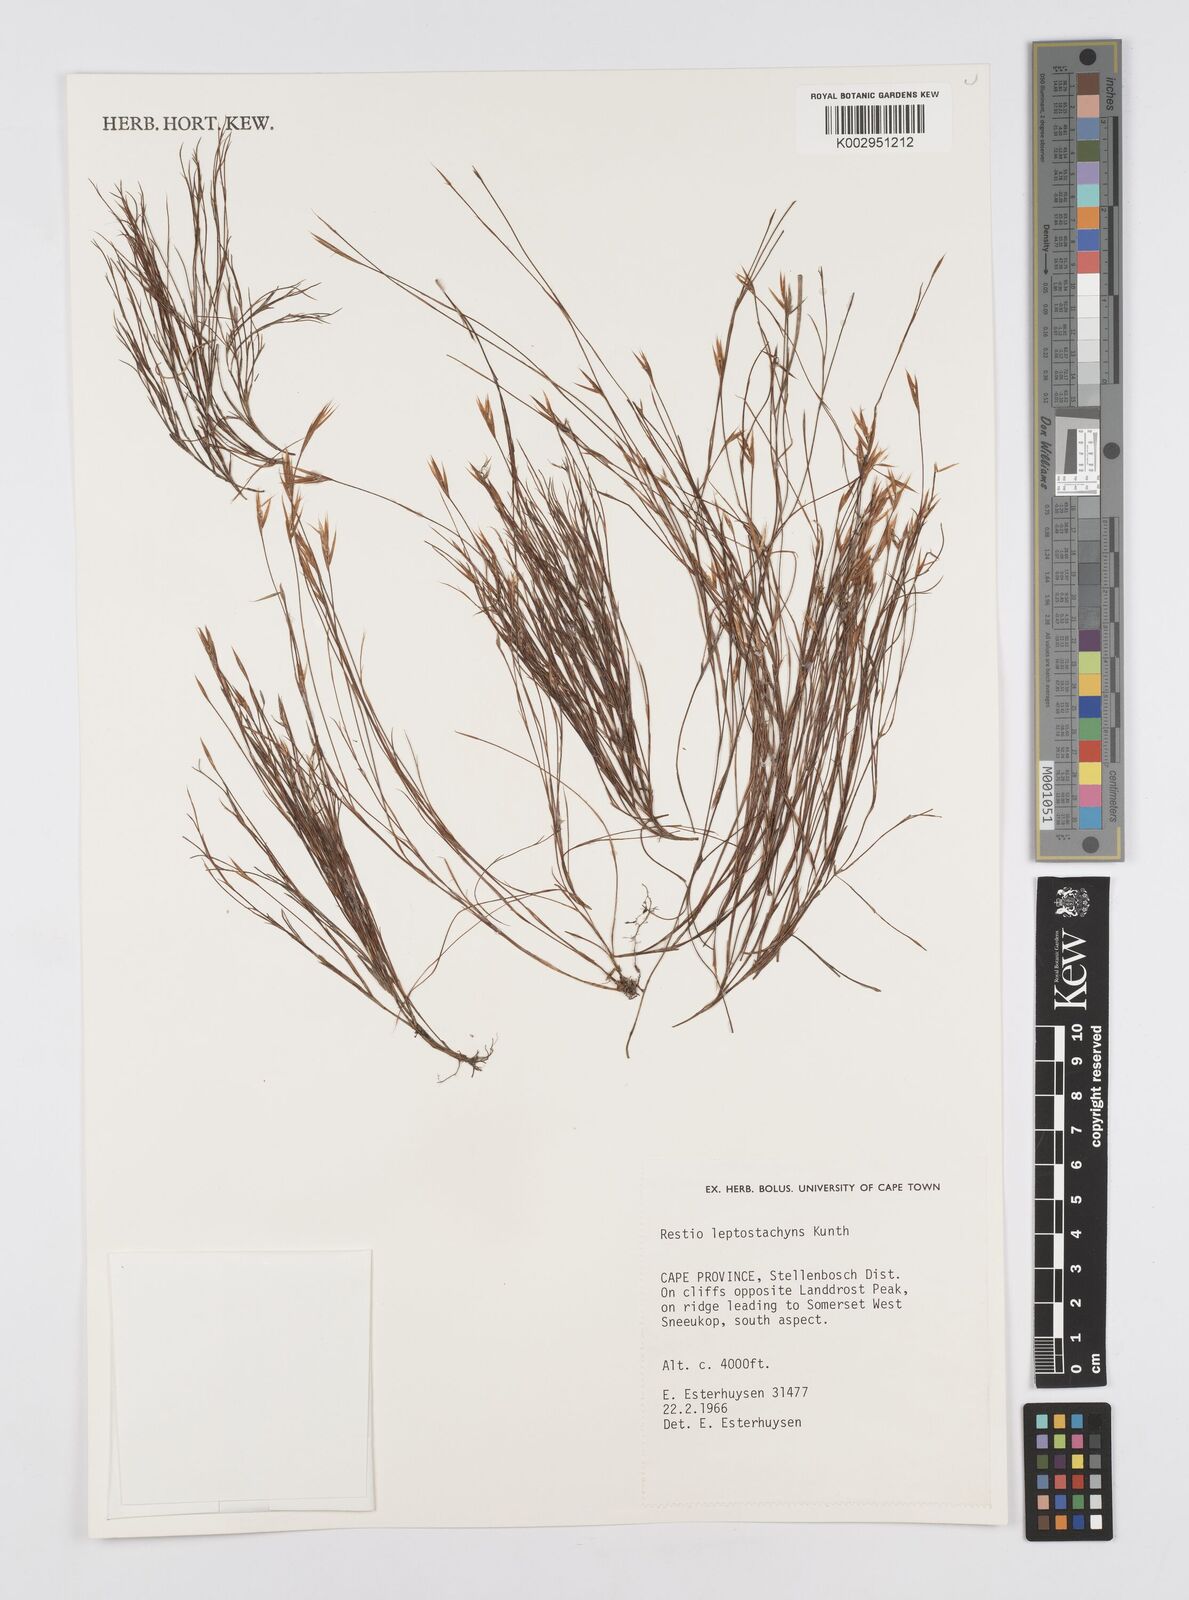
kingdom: Plantae
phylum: Tracheophyta
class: Liliopsida
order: Poales
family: Restionaceae
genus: Restio
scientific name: Restio leptostachyus
